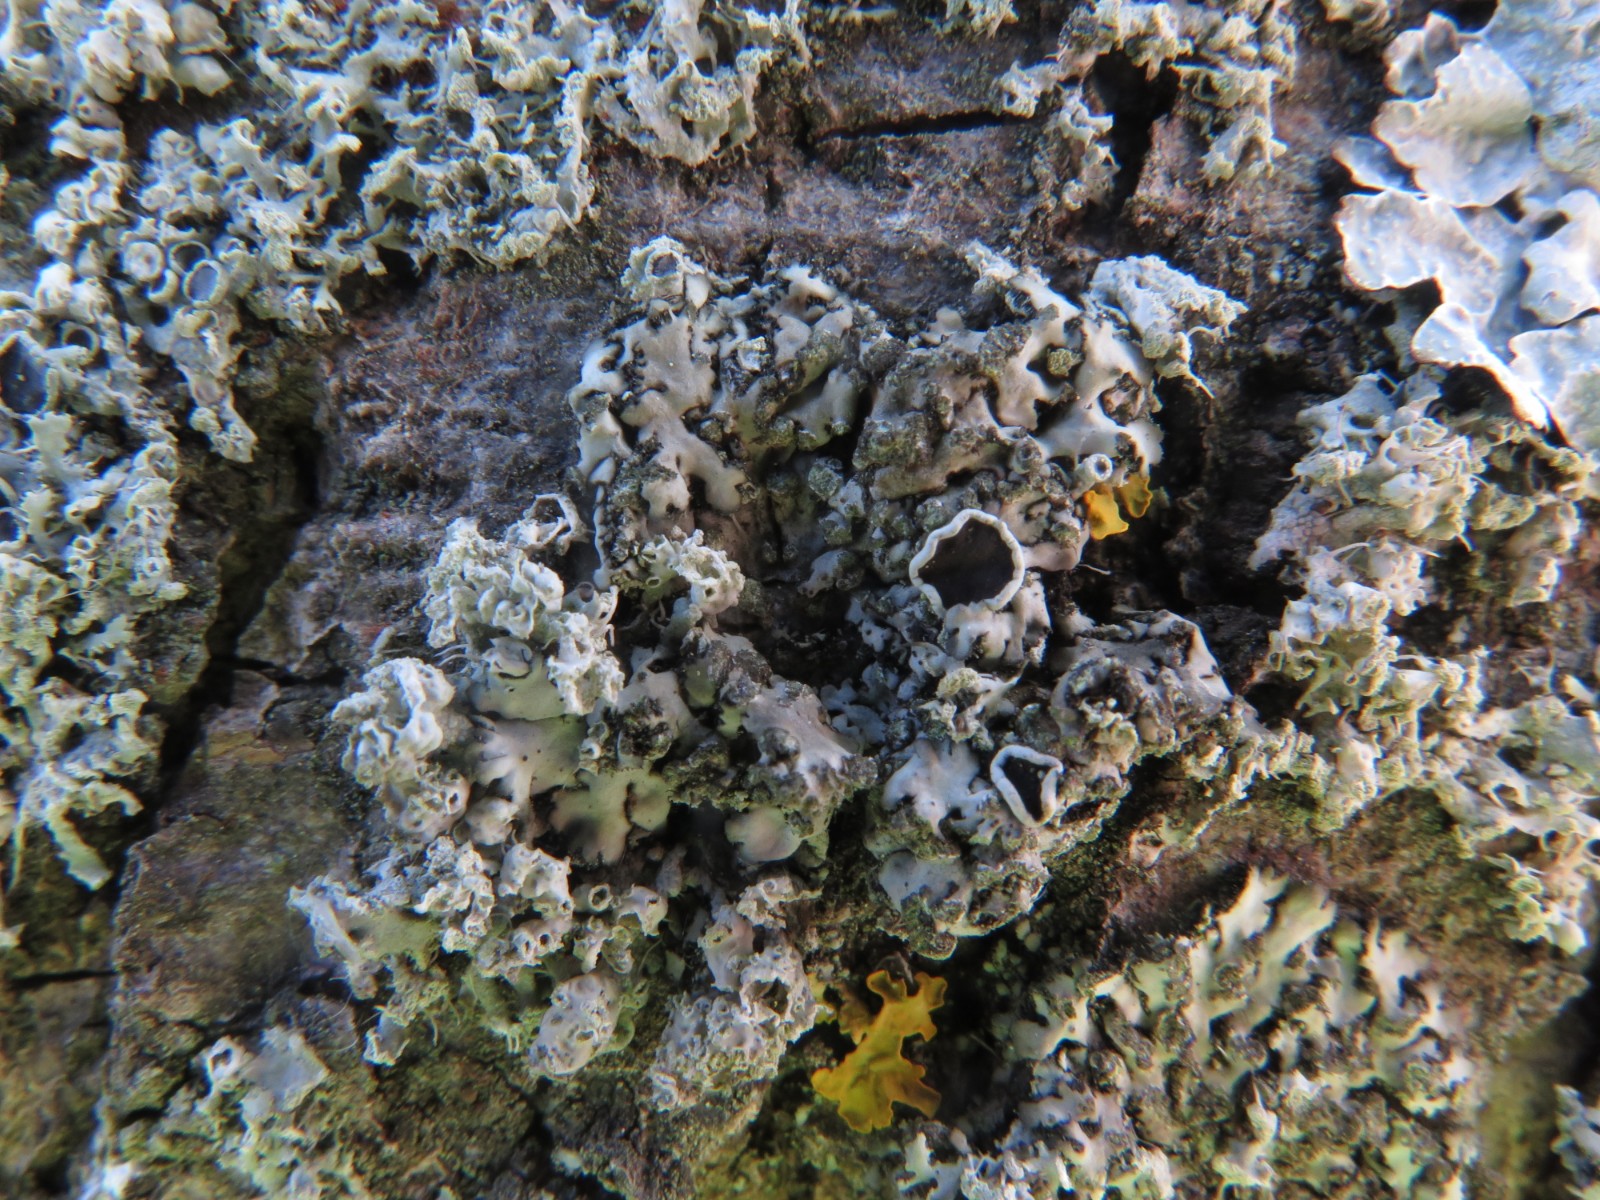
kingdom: Fungi
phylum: Ascomycota
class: Lecanoromycetes
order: Caliciales
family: Physciaceae
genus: Physcia
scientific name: Physcia tenella
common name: spæd rosetlav
